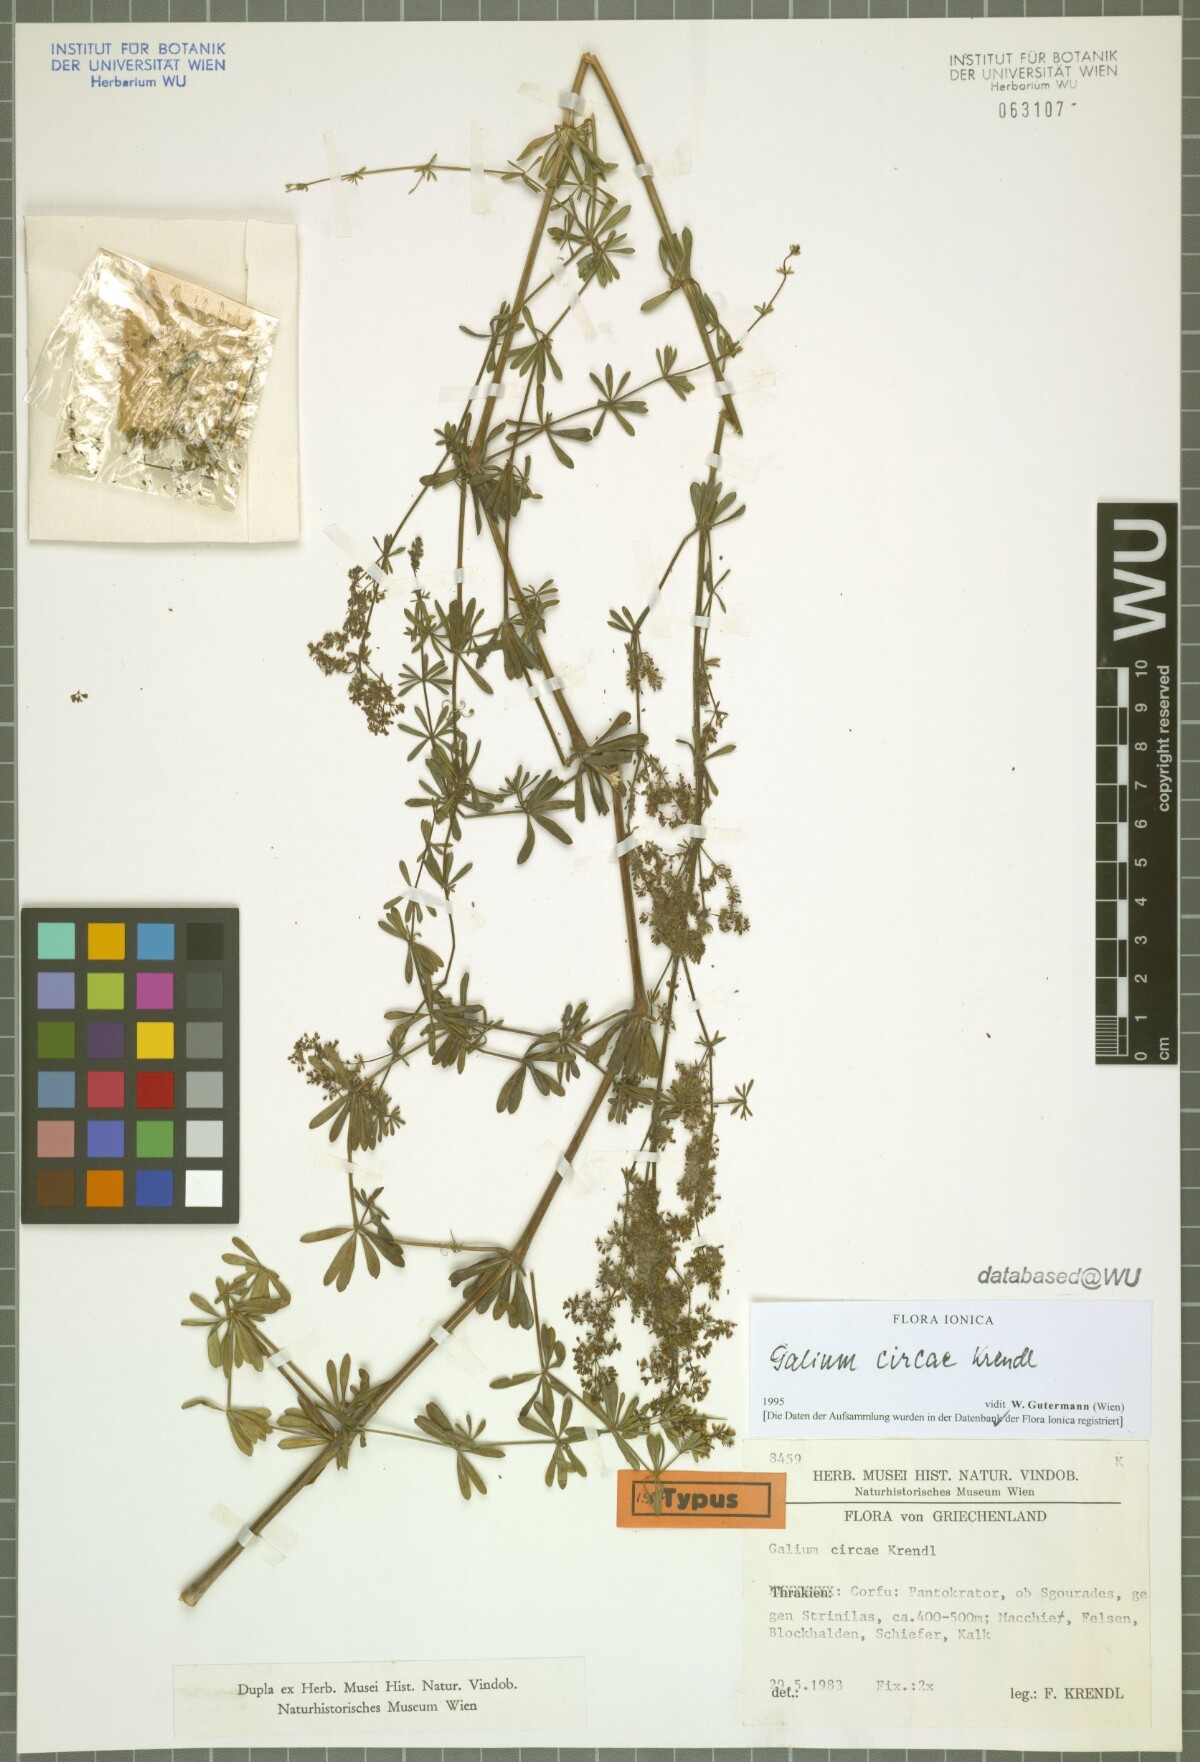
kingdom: Plantae
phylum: Tracheophyta
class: Magnoliopsida
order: Gentianales
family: Rubiaceae
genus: Galium
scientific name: Galium circae
